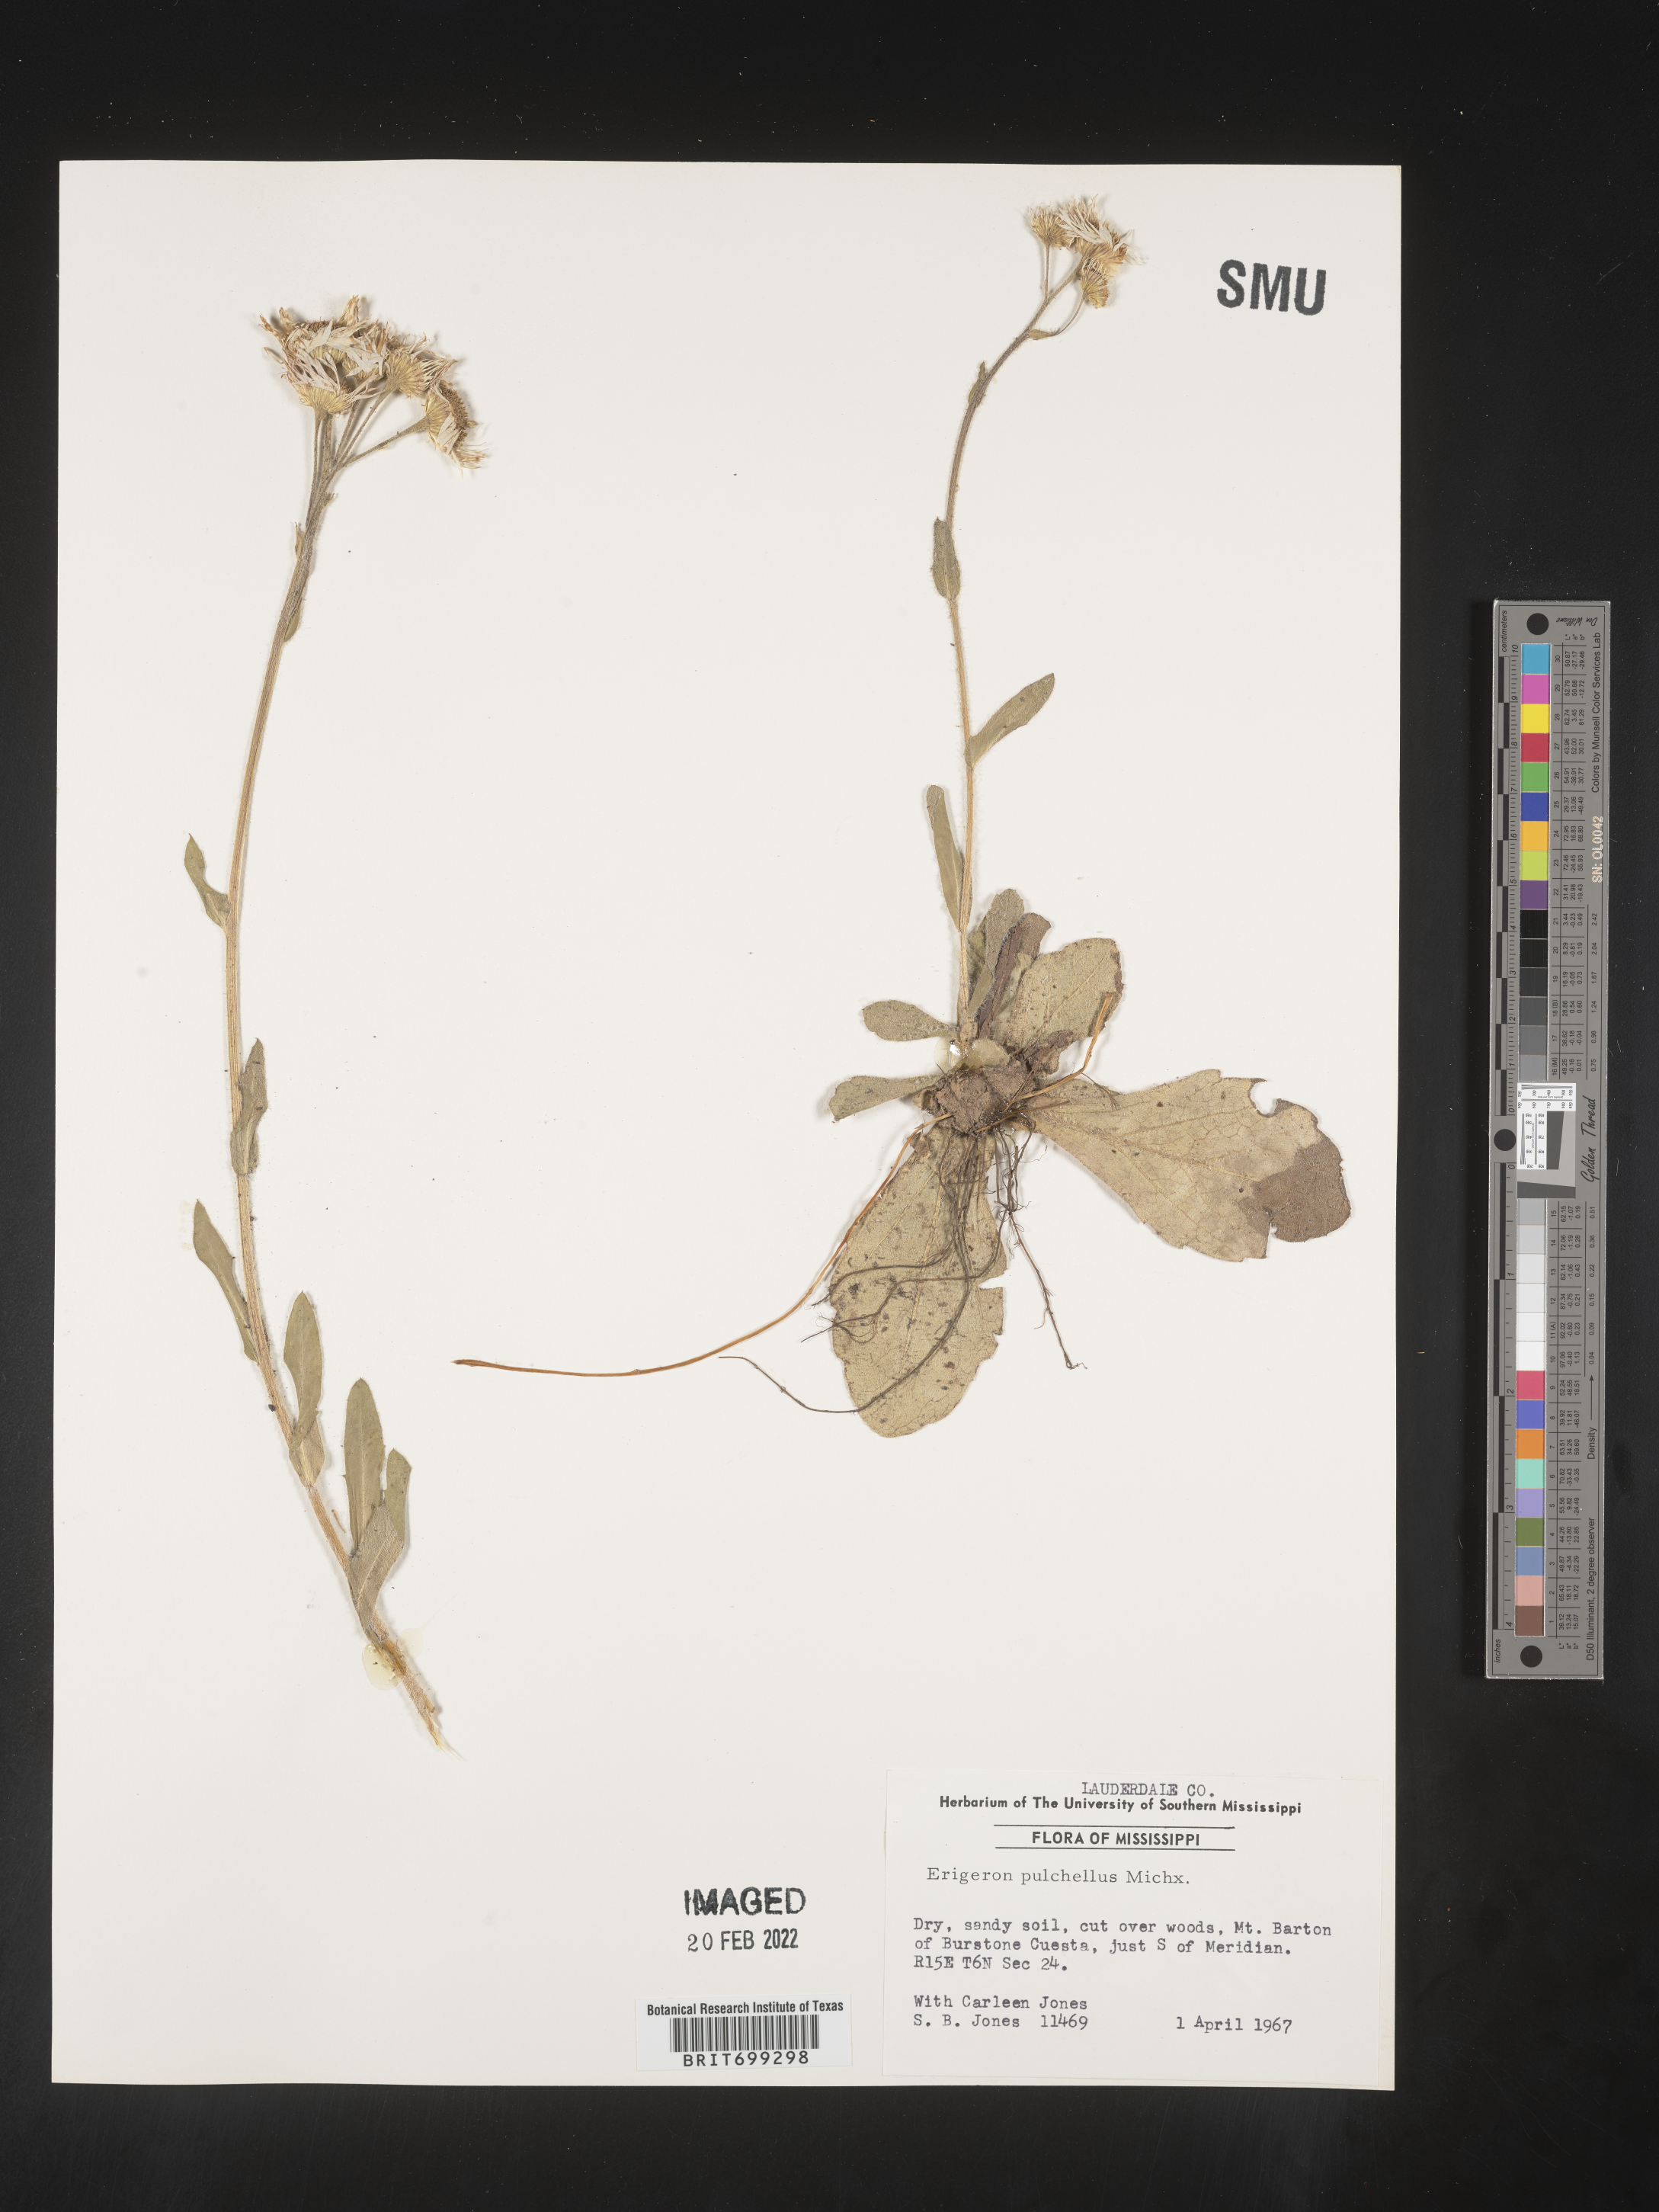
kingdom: Plantae
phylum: Tracheophyta
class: Magnoliopsida
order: Asterales
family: Asteraceae
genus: Erigeron
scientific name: Erigeron pulchellus
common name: Hairy fleabane
